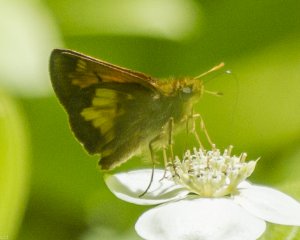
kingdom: Animalia
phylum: Arthropoda
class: Insecta
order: Lepidoptera
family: Hesperiidae
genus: Lon
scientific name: Lon hobomok
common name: Hobomok Skipper
